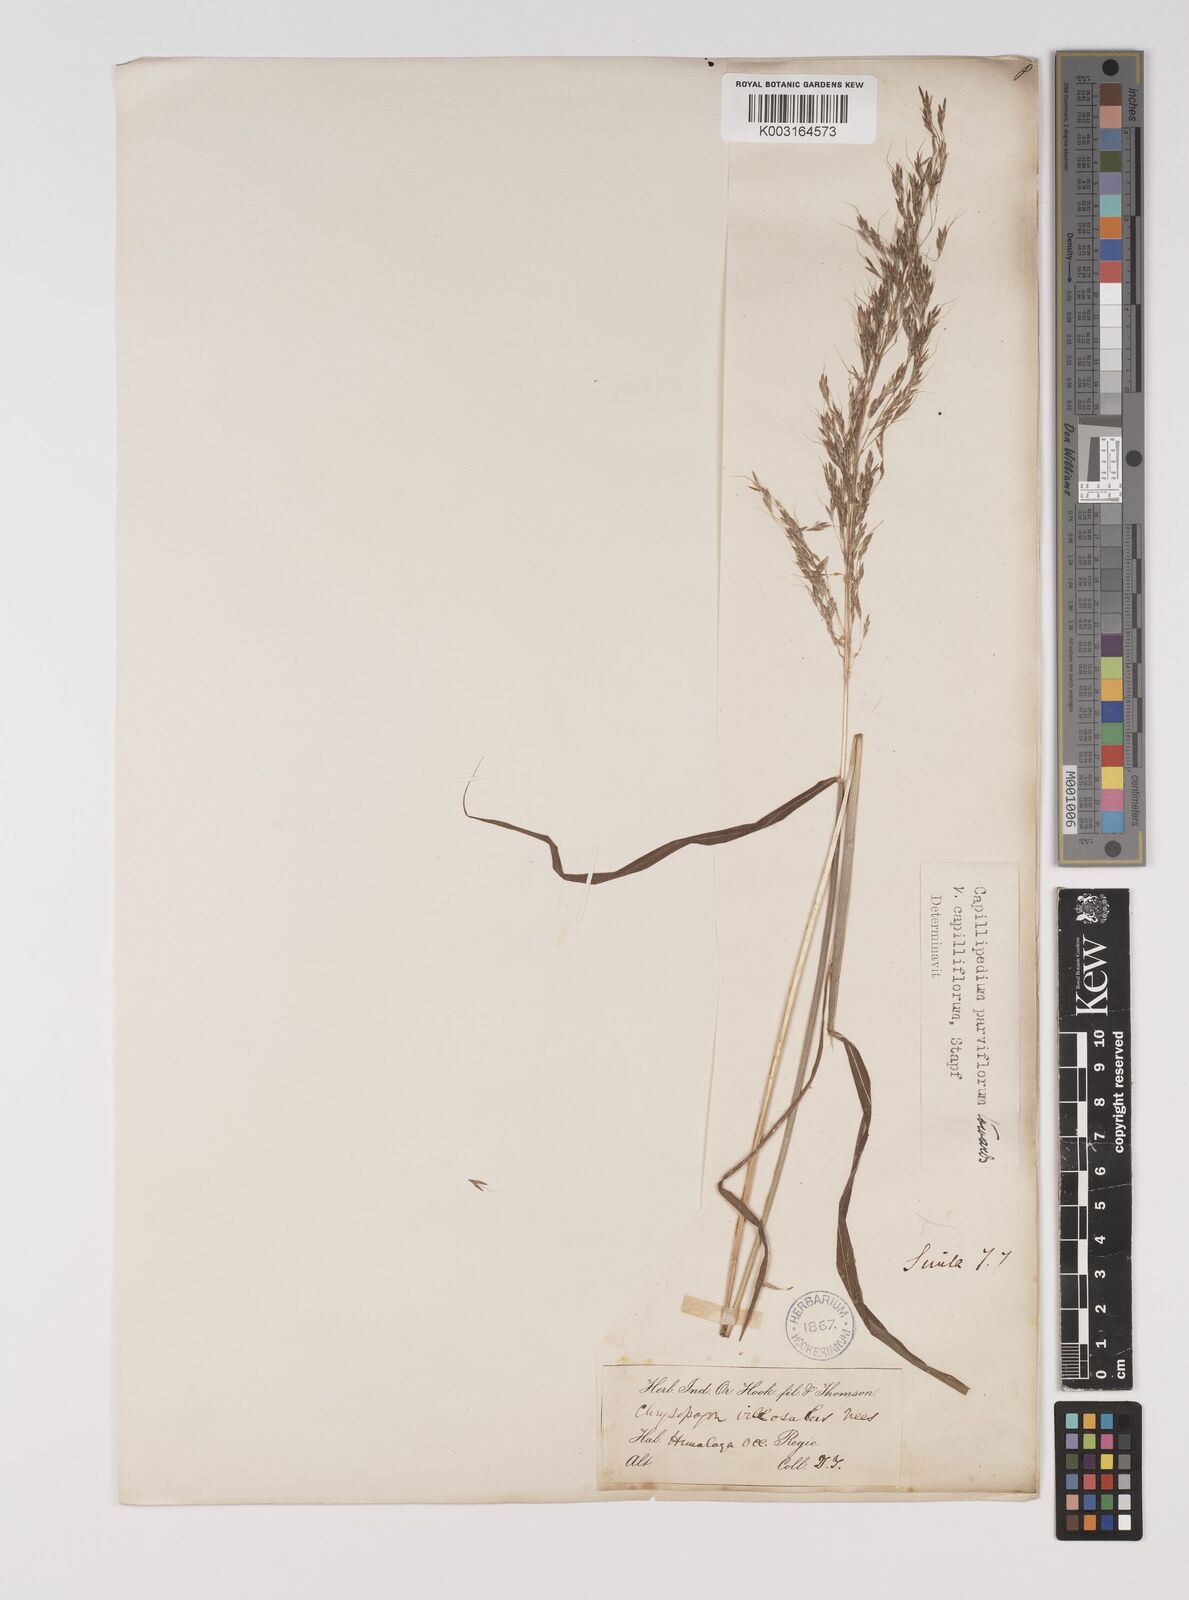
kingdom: Plantae
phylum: Tracheophyta
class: Liliopsida
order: Poales
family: Poaceae
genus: Capillipedium
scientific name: Capillipedium spicigerum
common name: Scented-top grass
